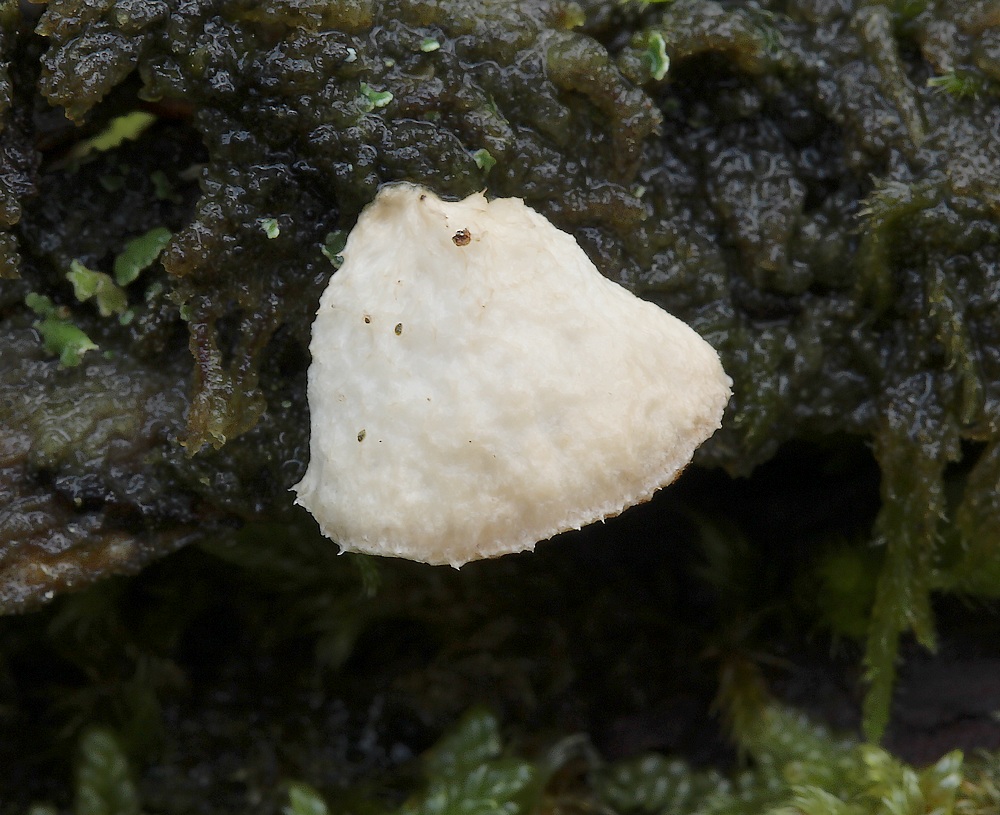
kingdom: Fungi
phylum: Basidiomycota
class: Agaricomycetes
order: Polyporales
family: Dacryobolaceae
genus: Postia
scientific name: Postia
